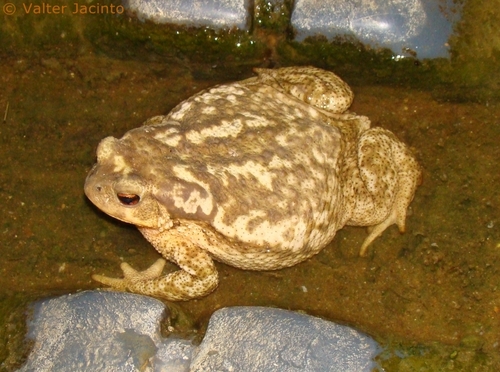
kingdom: Animalia
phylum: Chordata
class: Amphibia
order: Anura
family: Bufonidae
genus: Bufo
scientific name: Bufo spinosus
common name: Western common toad
